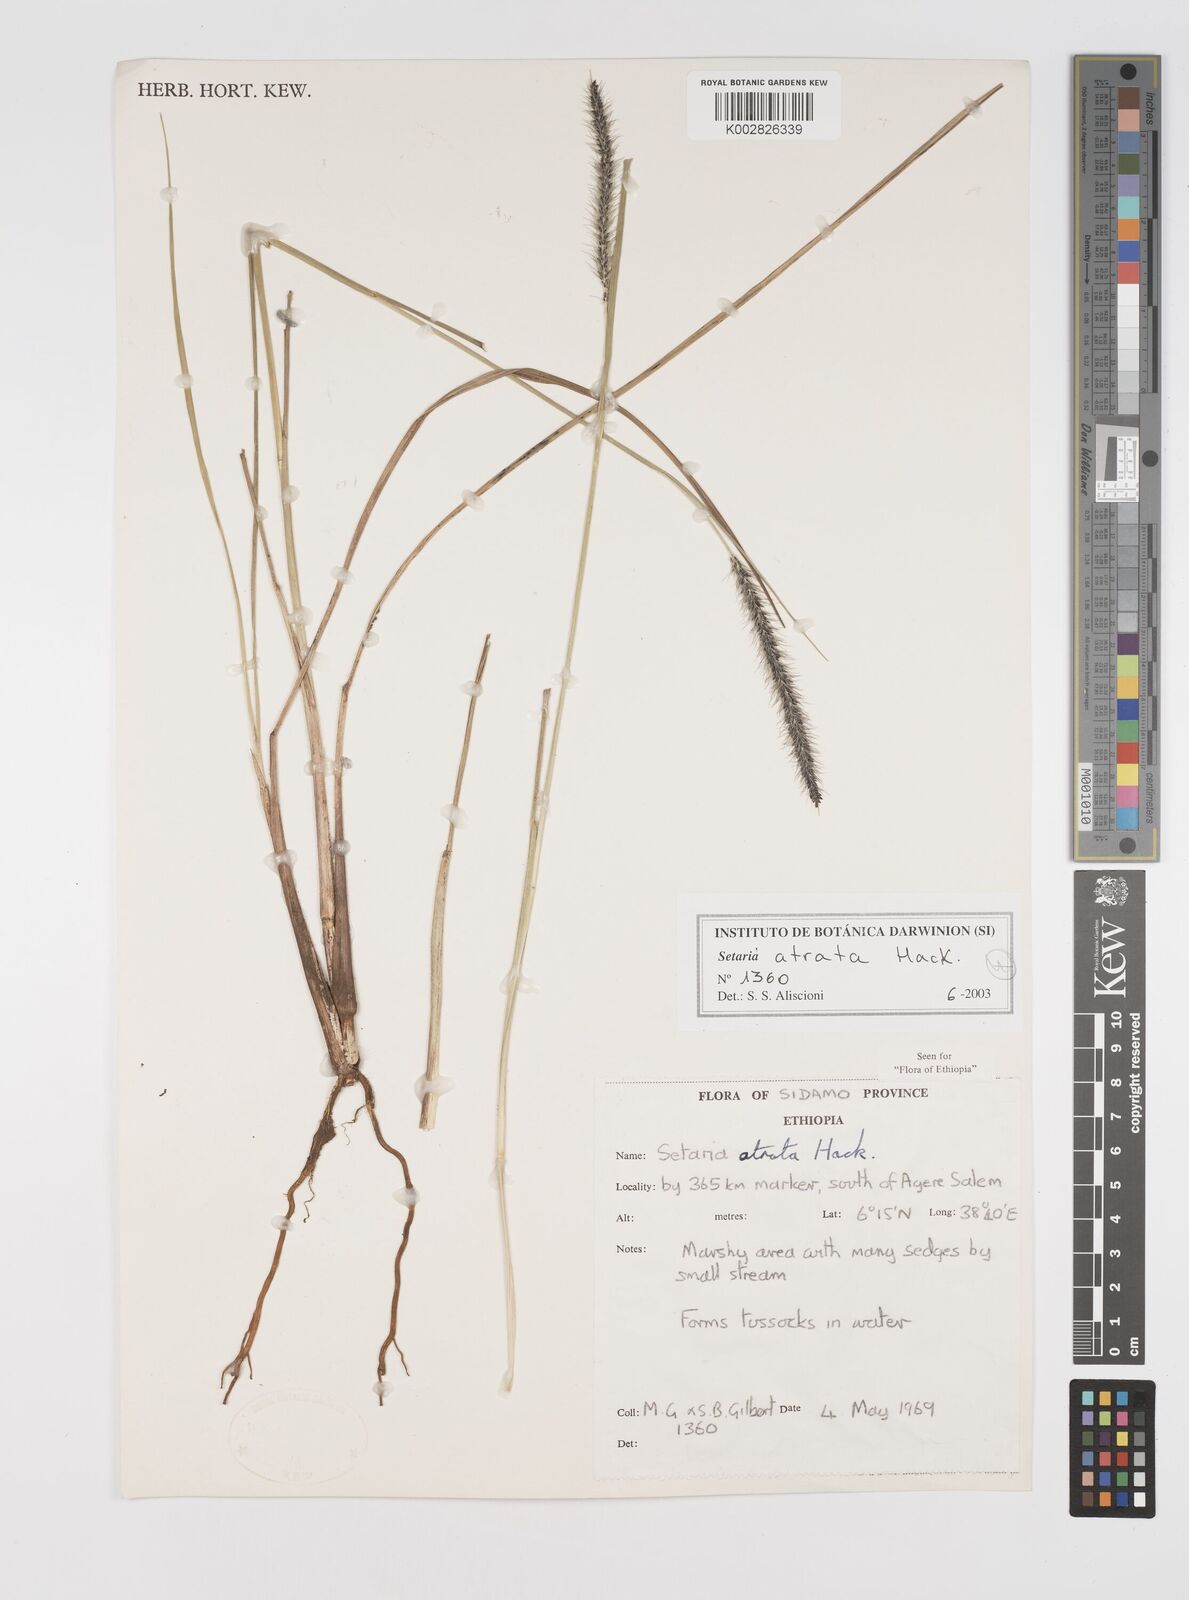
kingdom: Plantae
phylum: Tracheophyta
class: Liliopsida
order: Poales
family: Poaceae
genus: Setaria
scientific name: Setaria atrata
